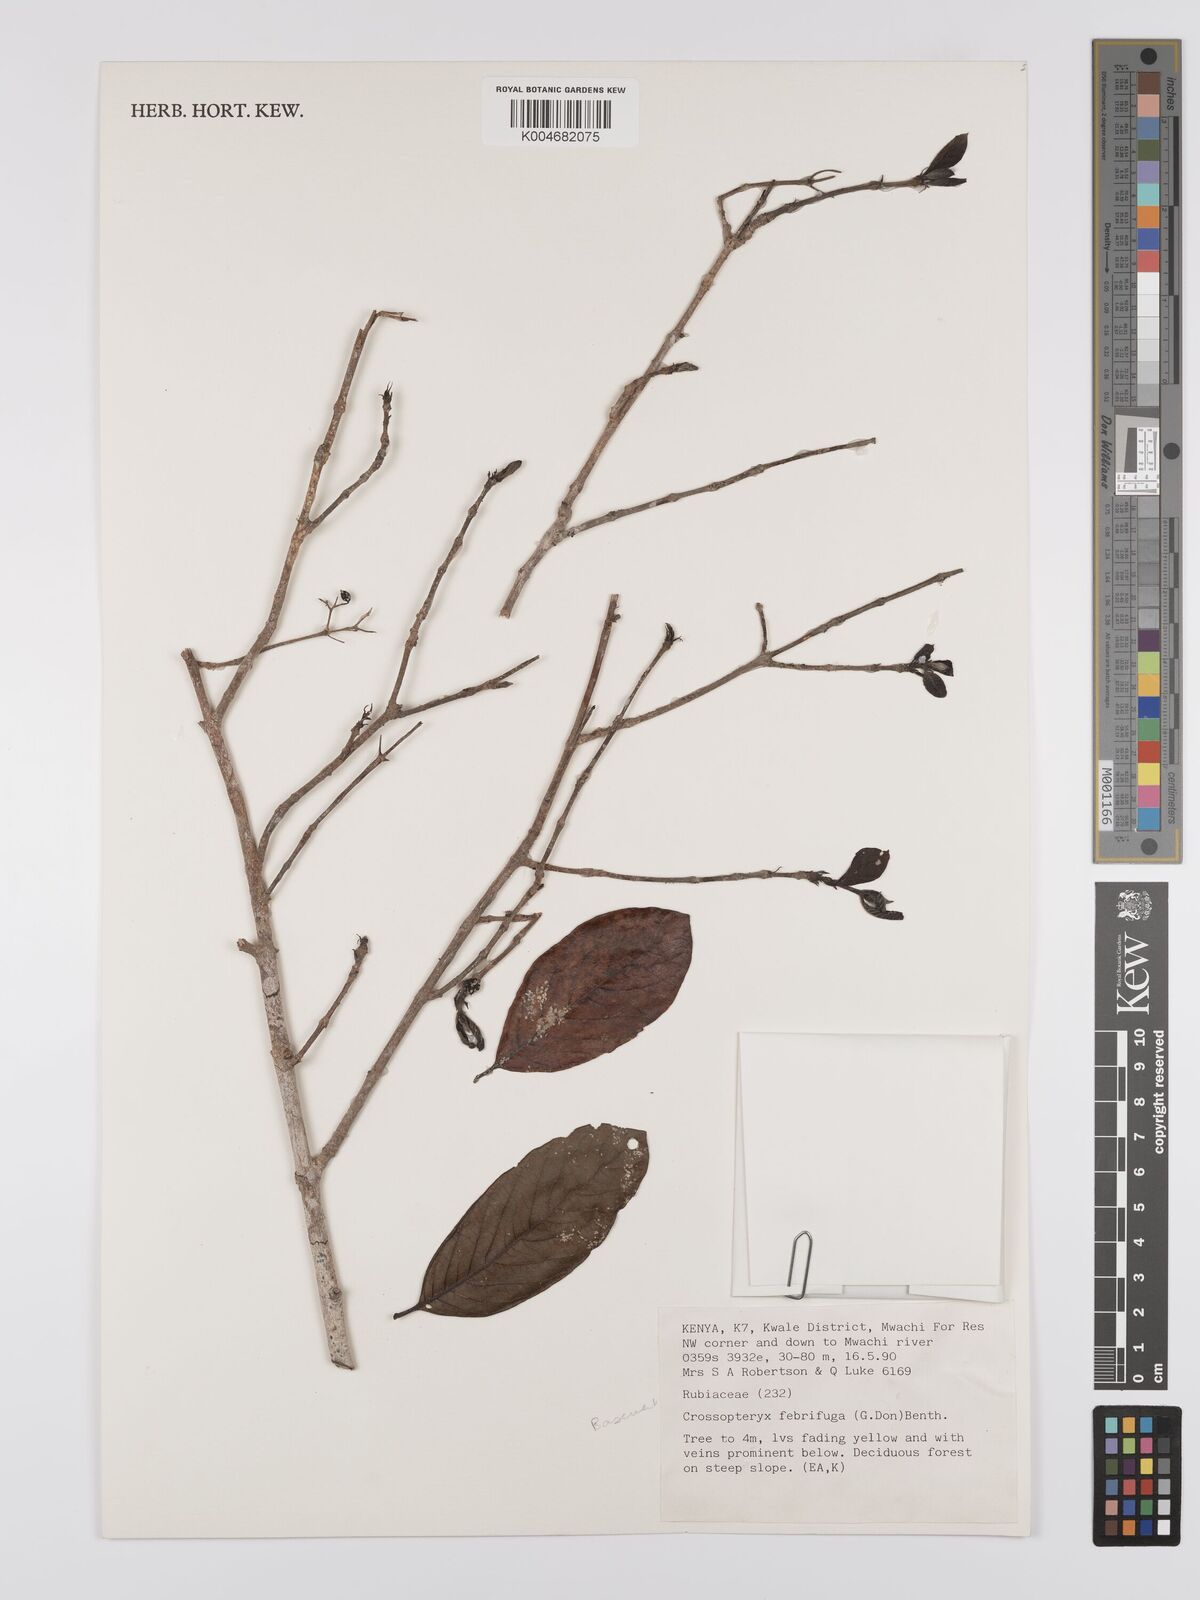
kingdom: Plantae
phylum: Tracheophyta
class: Magnoliopsida
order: Gentianales
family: Rubiaceae
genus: Crossopteryx
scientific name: Crossopteryx febrifuga
